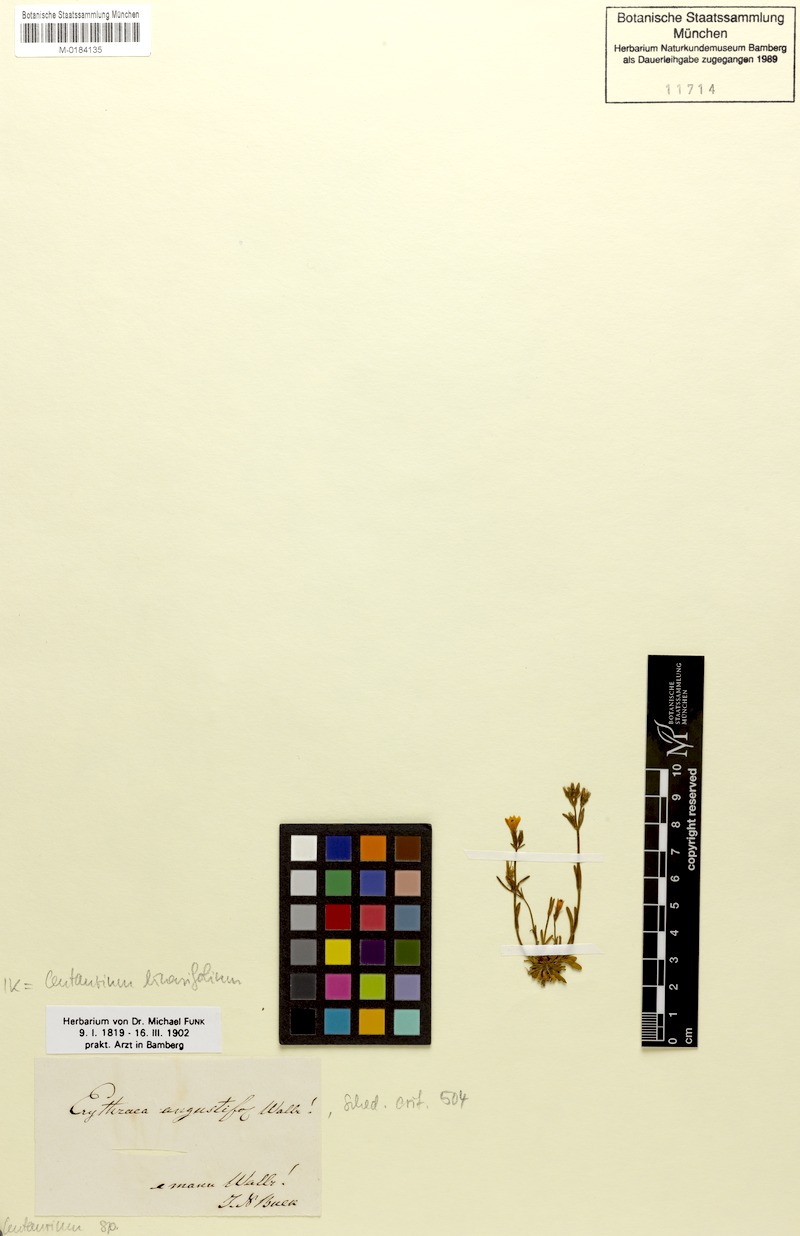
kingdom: Plantae
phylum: Tracheophyta
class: Magnoliopsida
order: Gentianales
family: Gentianaceae
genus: Centaurium
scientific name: Centaurium littorale
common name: Seaside centaury
